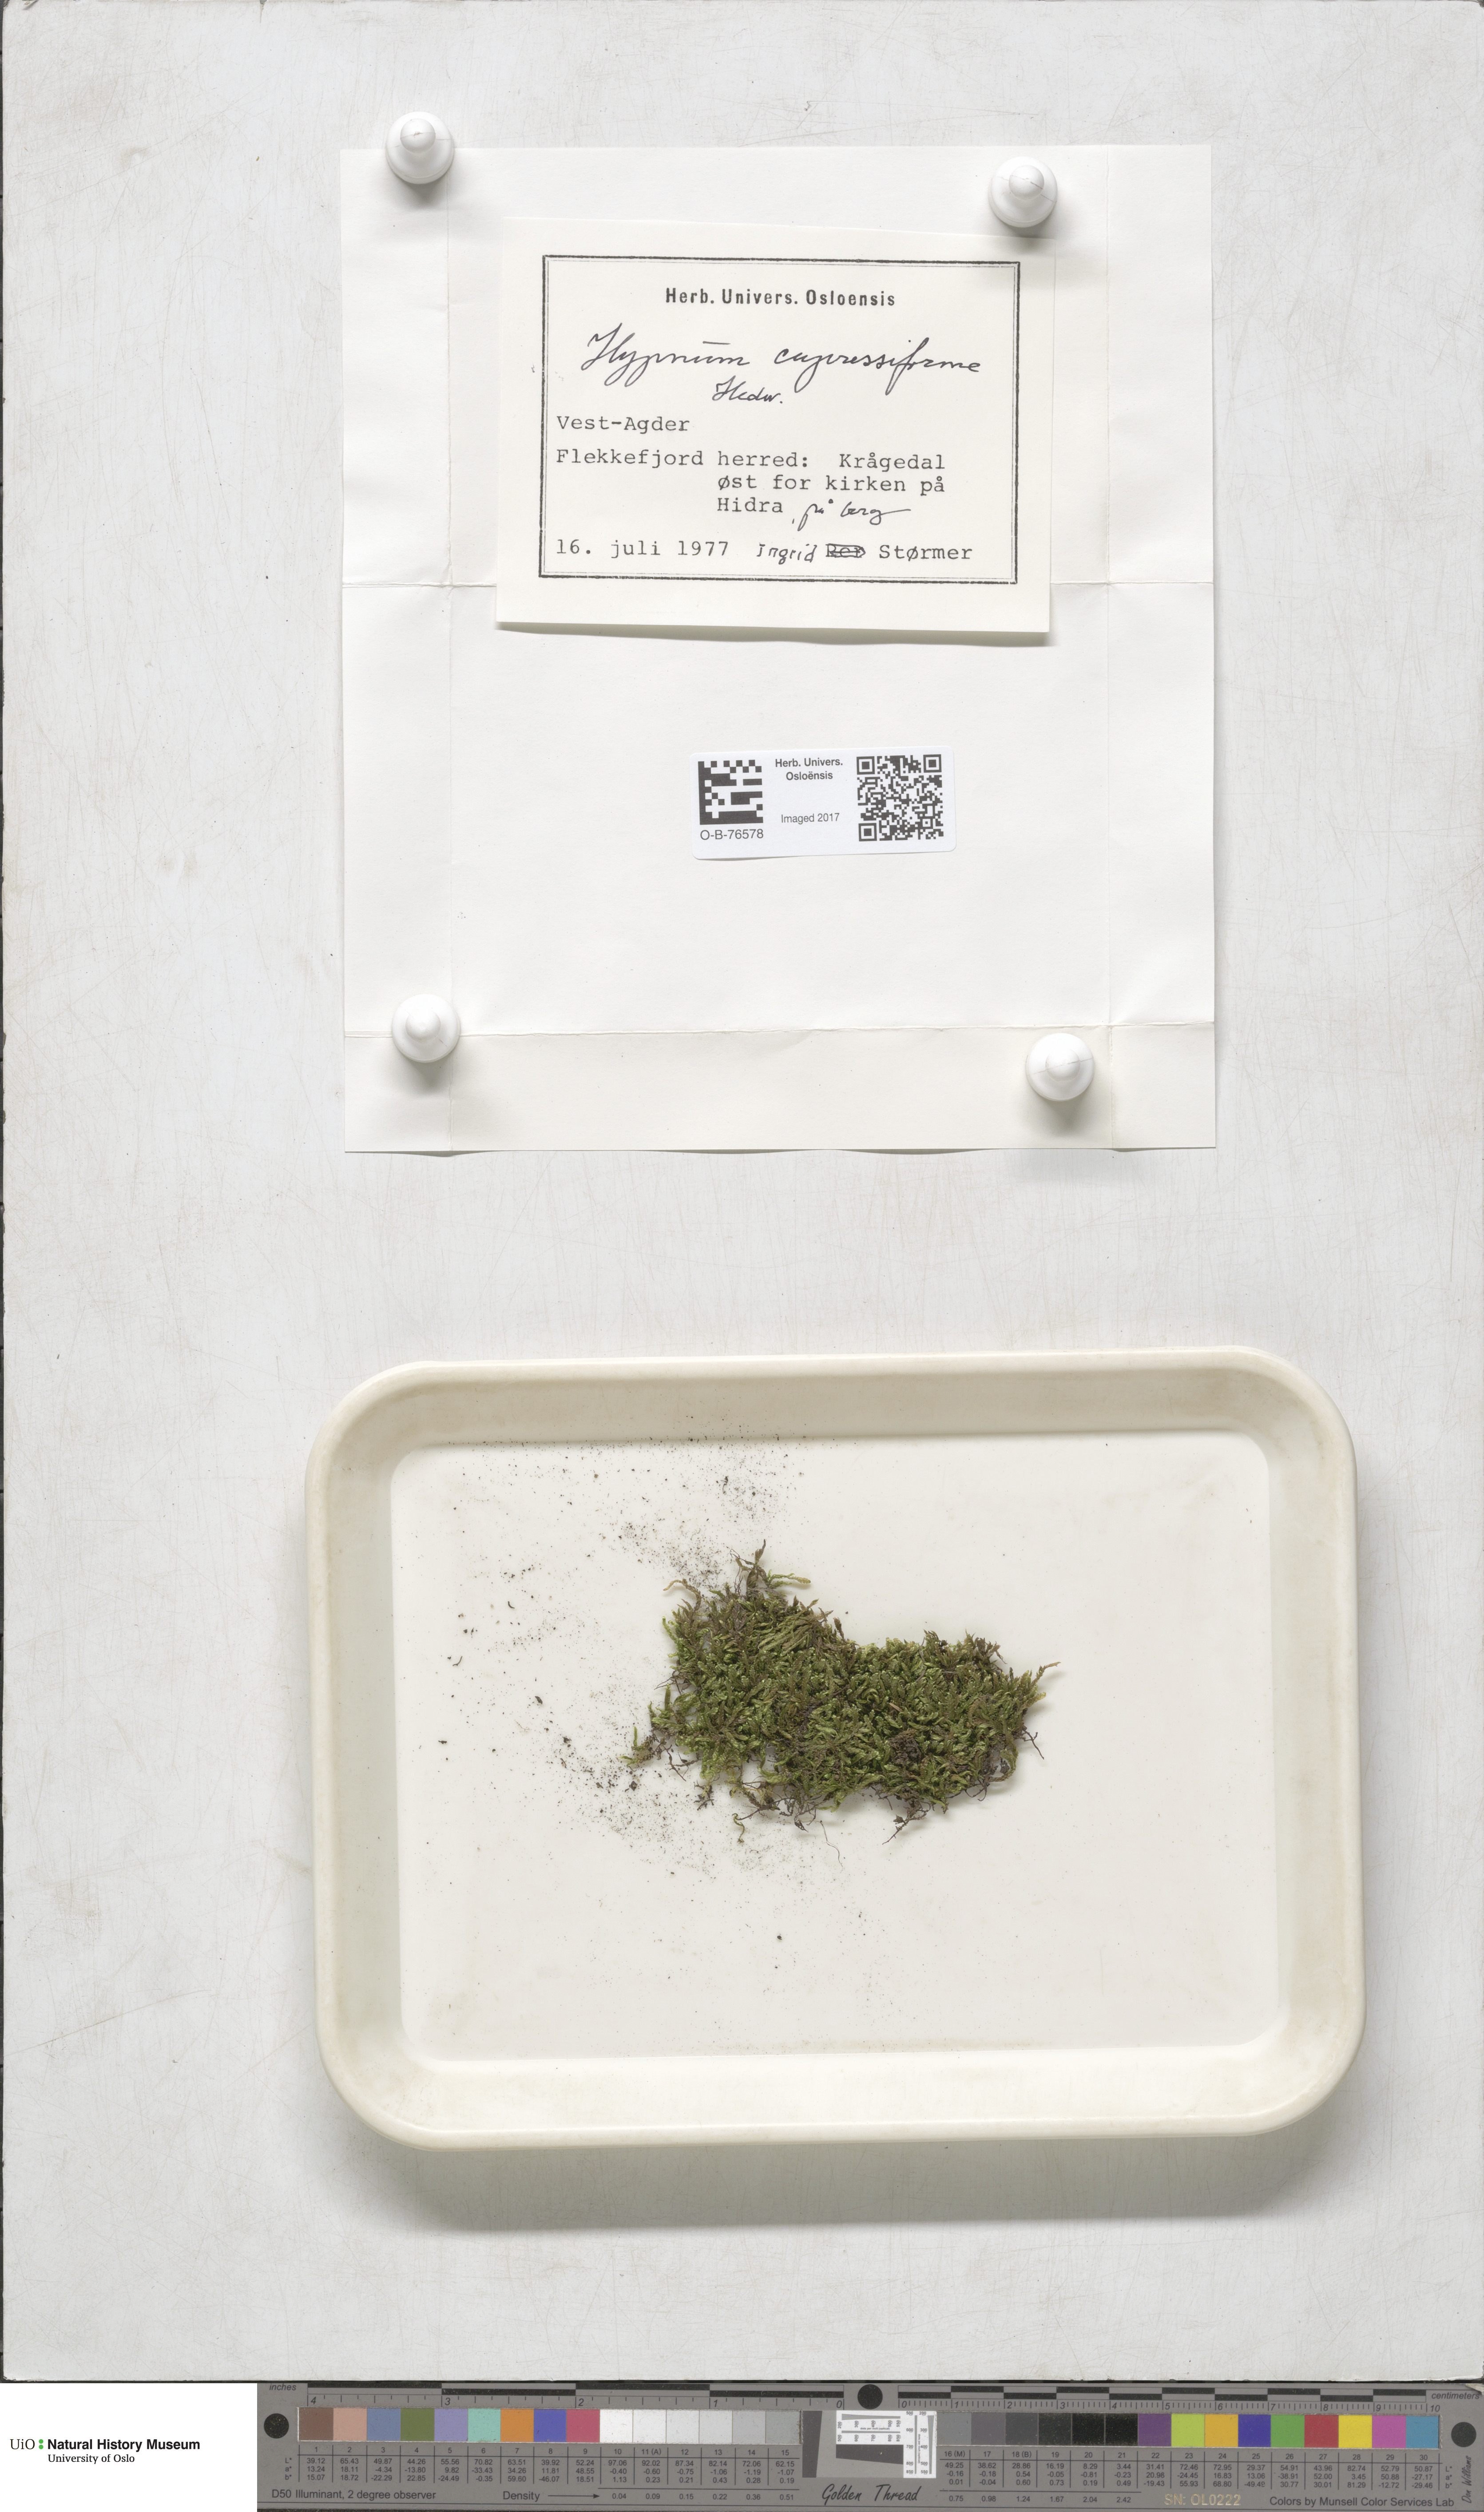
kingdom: Plantae
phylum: Bryophyta
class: Bryopsida
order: Hypnales
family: Hypnaceae
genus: Hypnum
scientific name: Hypnum cupressiforme
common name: Cypress-leaved plait-moss
